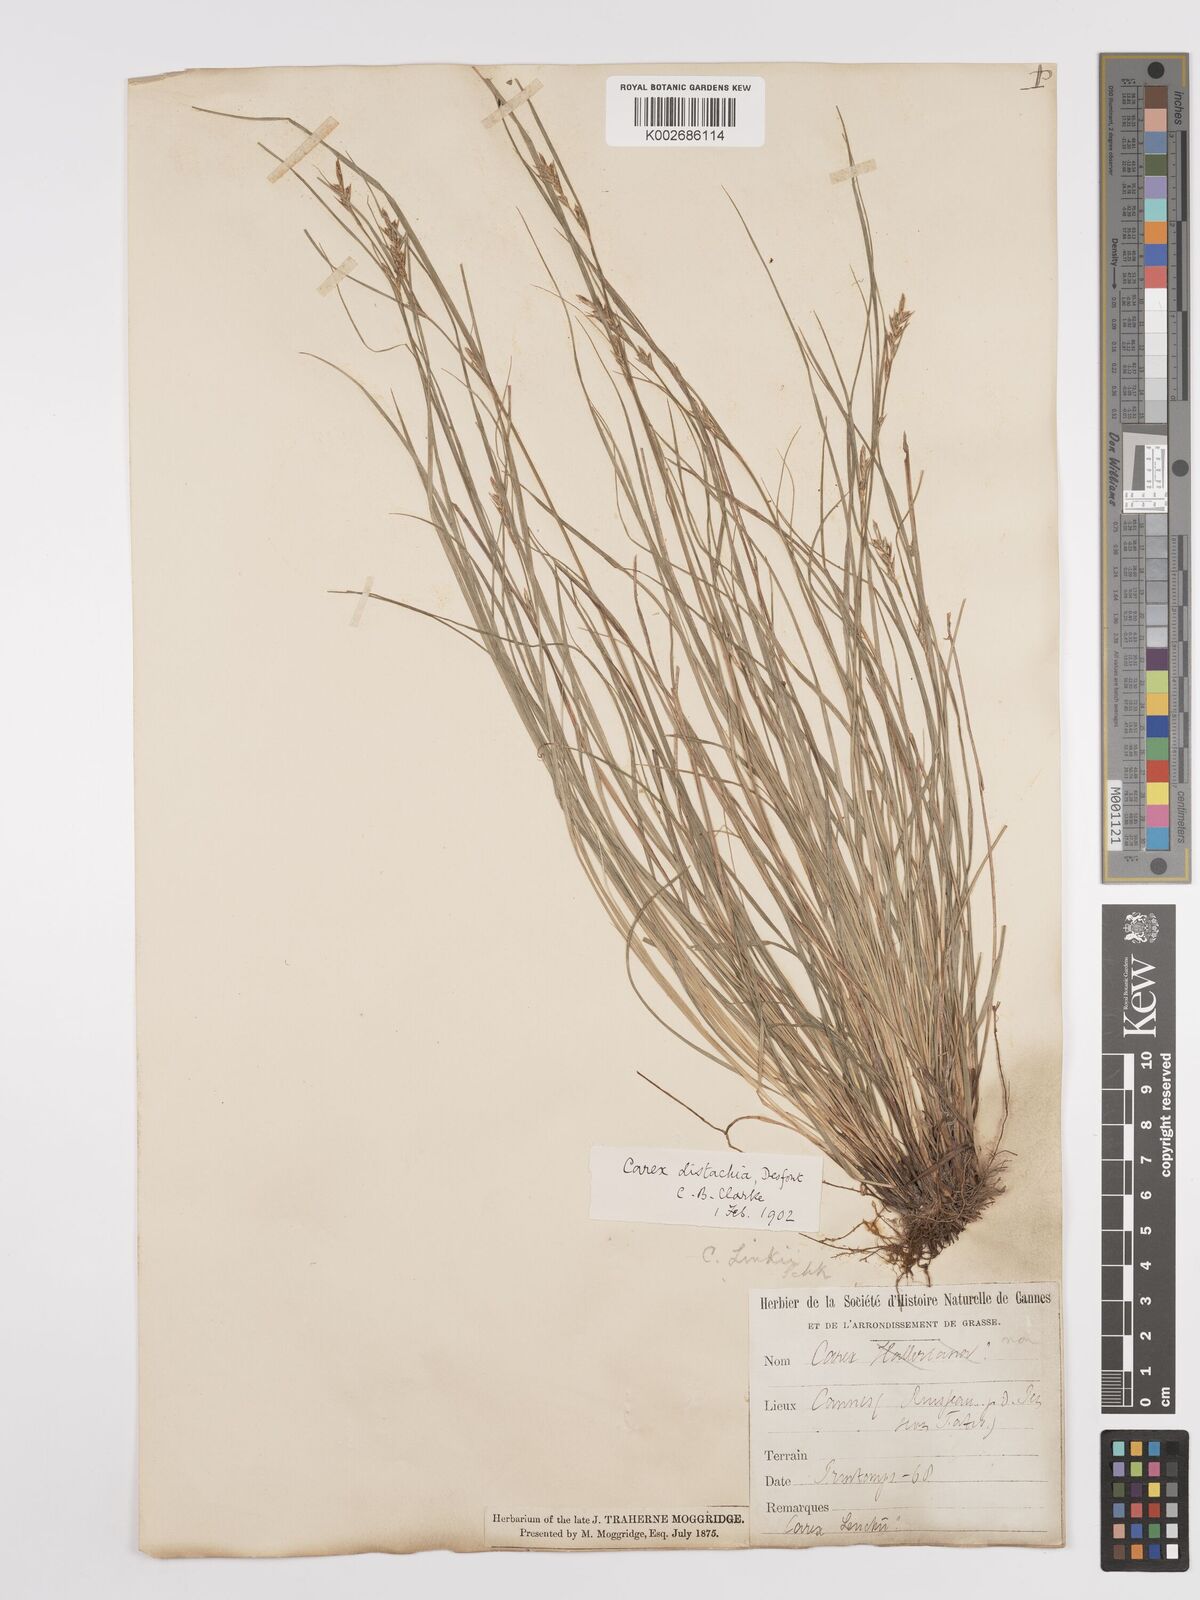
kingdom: Plantae
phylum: Tracheophyta
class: Liliopsida
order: Poales
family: Cyperaceae
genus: Carex
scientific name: Carex distachya
